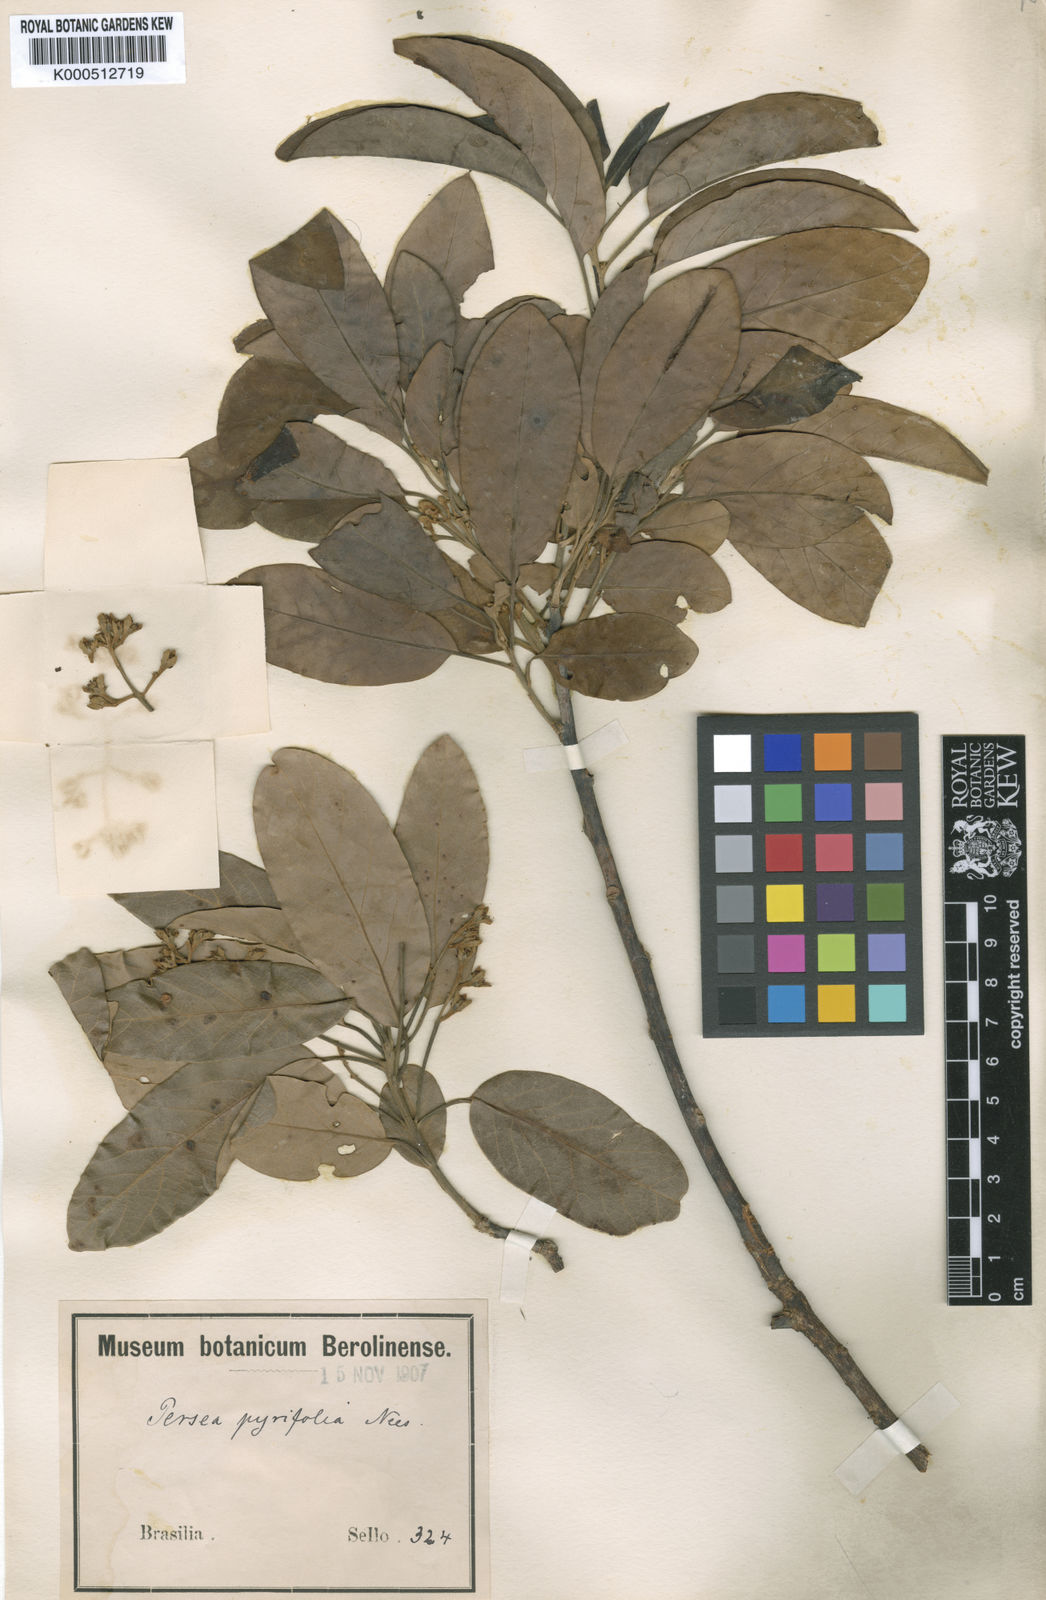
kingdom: Plantae
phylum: Tracheophyta
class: Magnoliopsida
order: Laurales
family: Lauraceae
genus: Persea
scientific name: Persea
